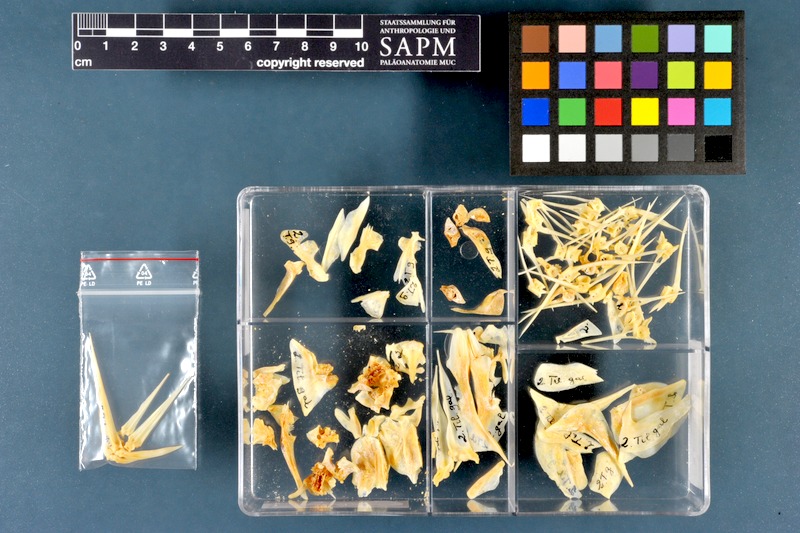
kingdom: Animalia
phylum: Chordata
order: Perciformes
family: Cichlidae
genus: Sarotherodon
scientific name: Sarotherodon galilaeus
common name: Mango tilapia
